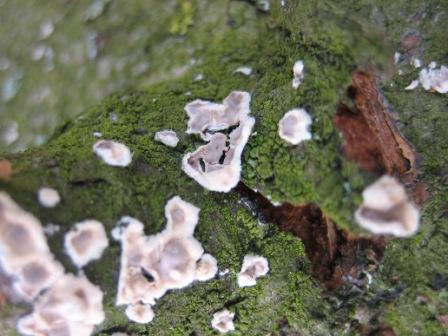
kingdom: Fungi
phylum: Basidiomycota
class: Agaricomycetes
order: Agaricales
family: Physalacriaceae
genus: Cylindrobasidium
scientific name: Cylindrobasidium evolvens
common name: sprækkehinde
